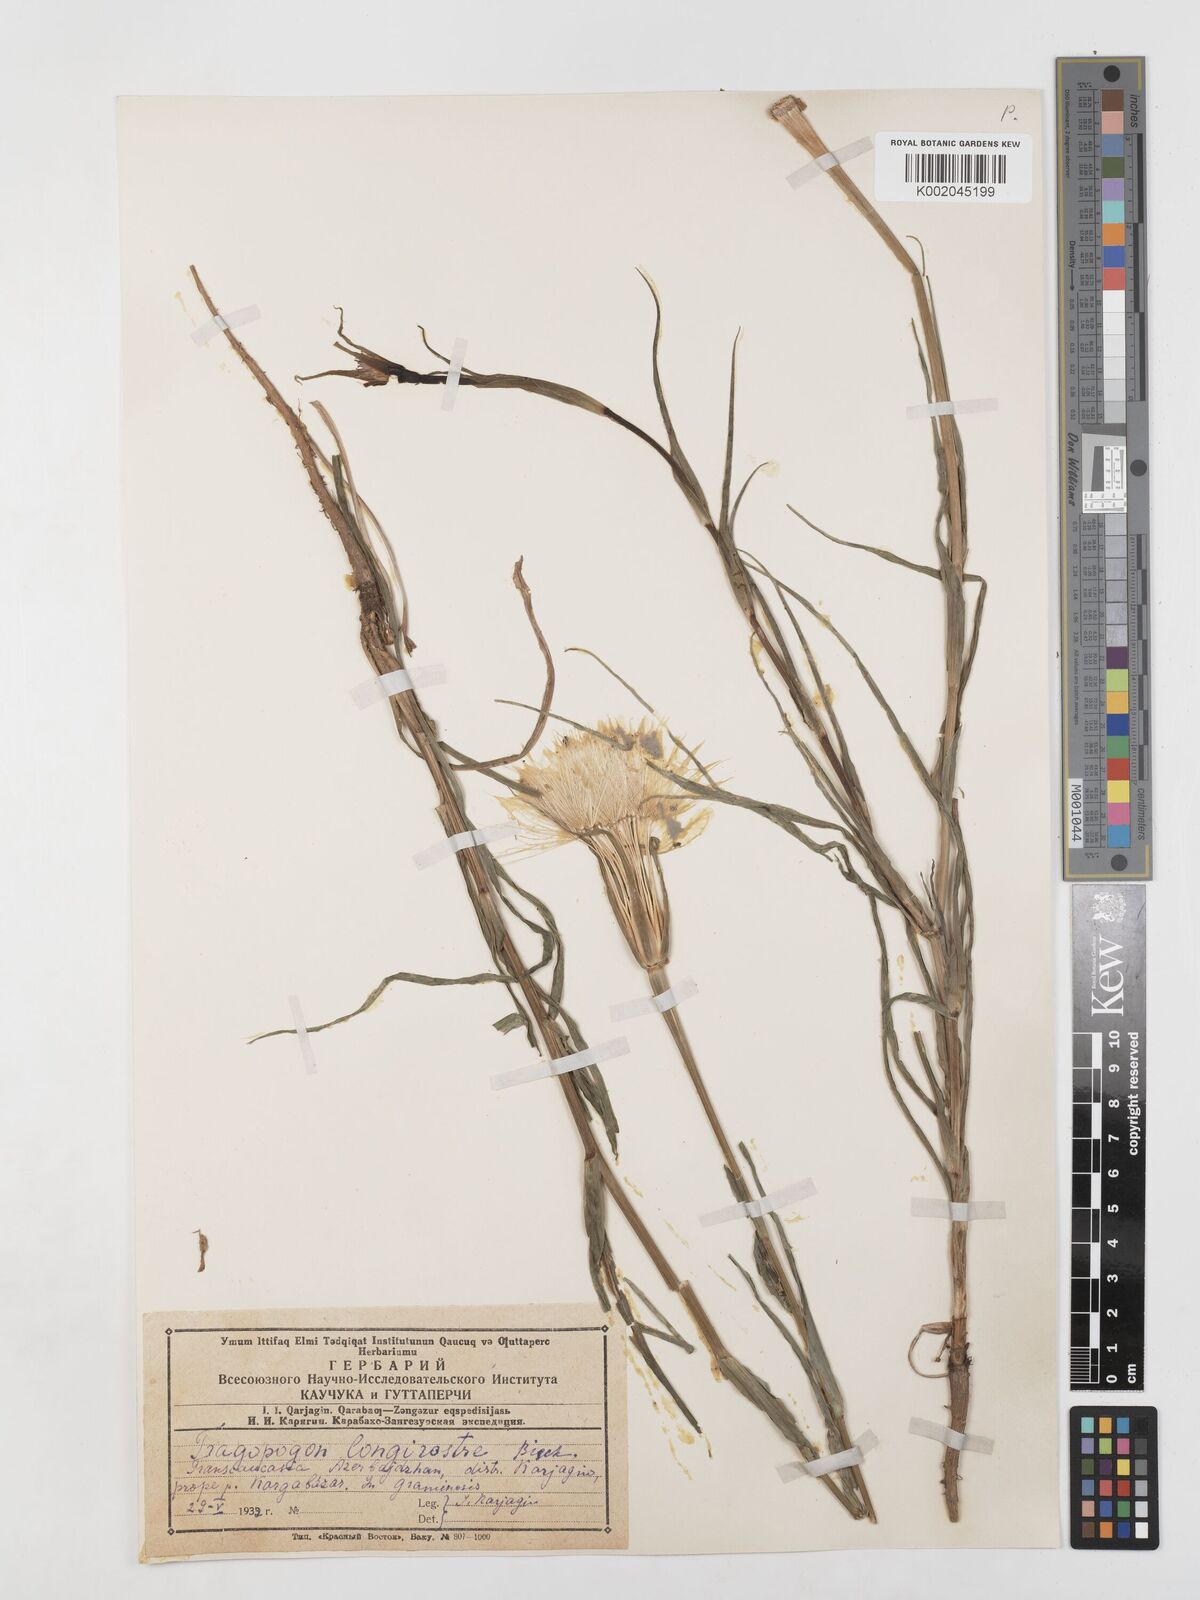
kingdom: Plantae
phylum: Tracheophyta
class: Magnoliopsida
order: Asterales
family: Asteraceae
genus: Tragopogon
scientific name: Tragopogon coelesyriacus
